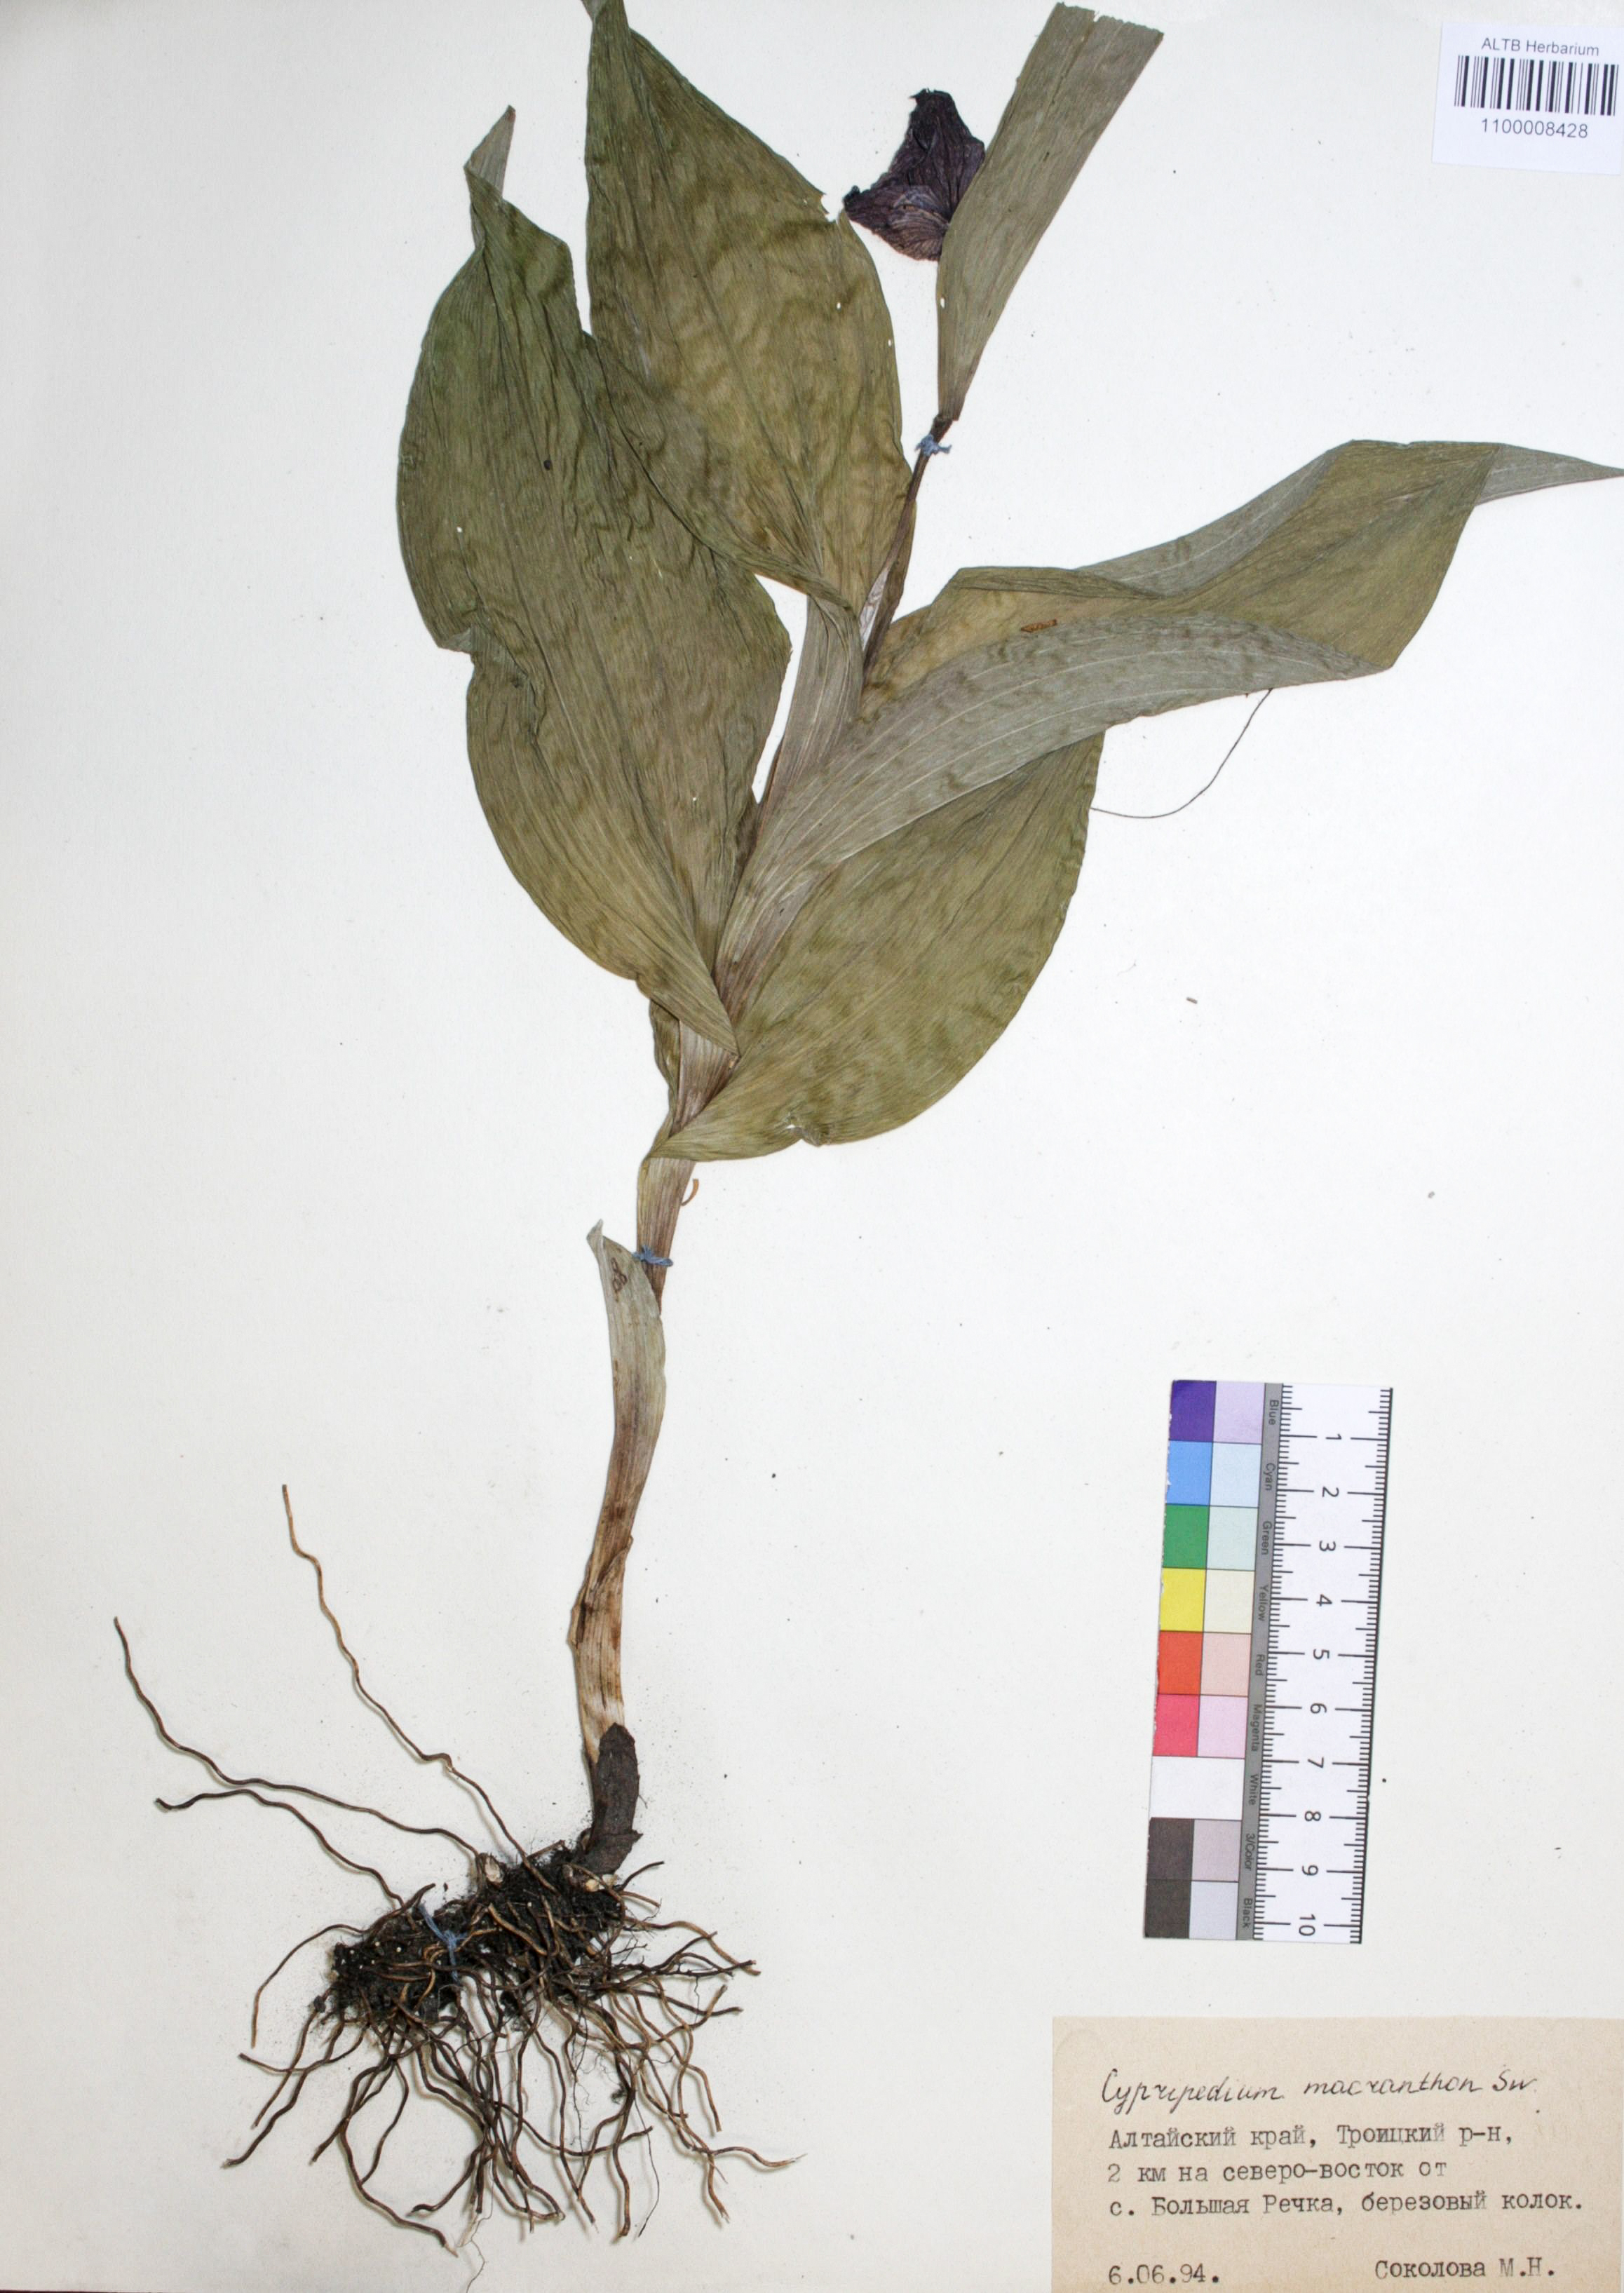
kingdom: Plantae
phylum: Tracheophyta
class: Liliopsida
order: Asparagales
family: Orchidaceae
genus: Cypripedium
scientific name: Cypripedium macranthon
